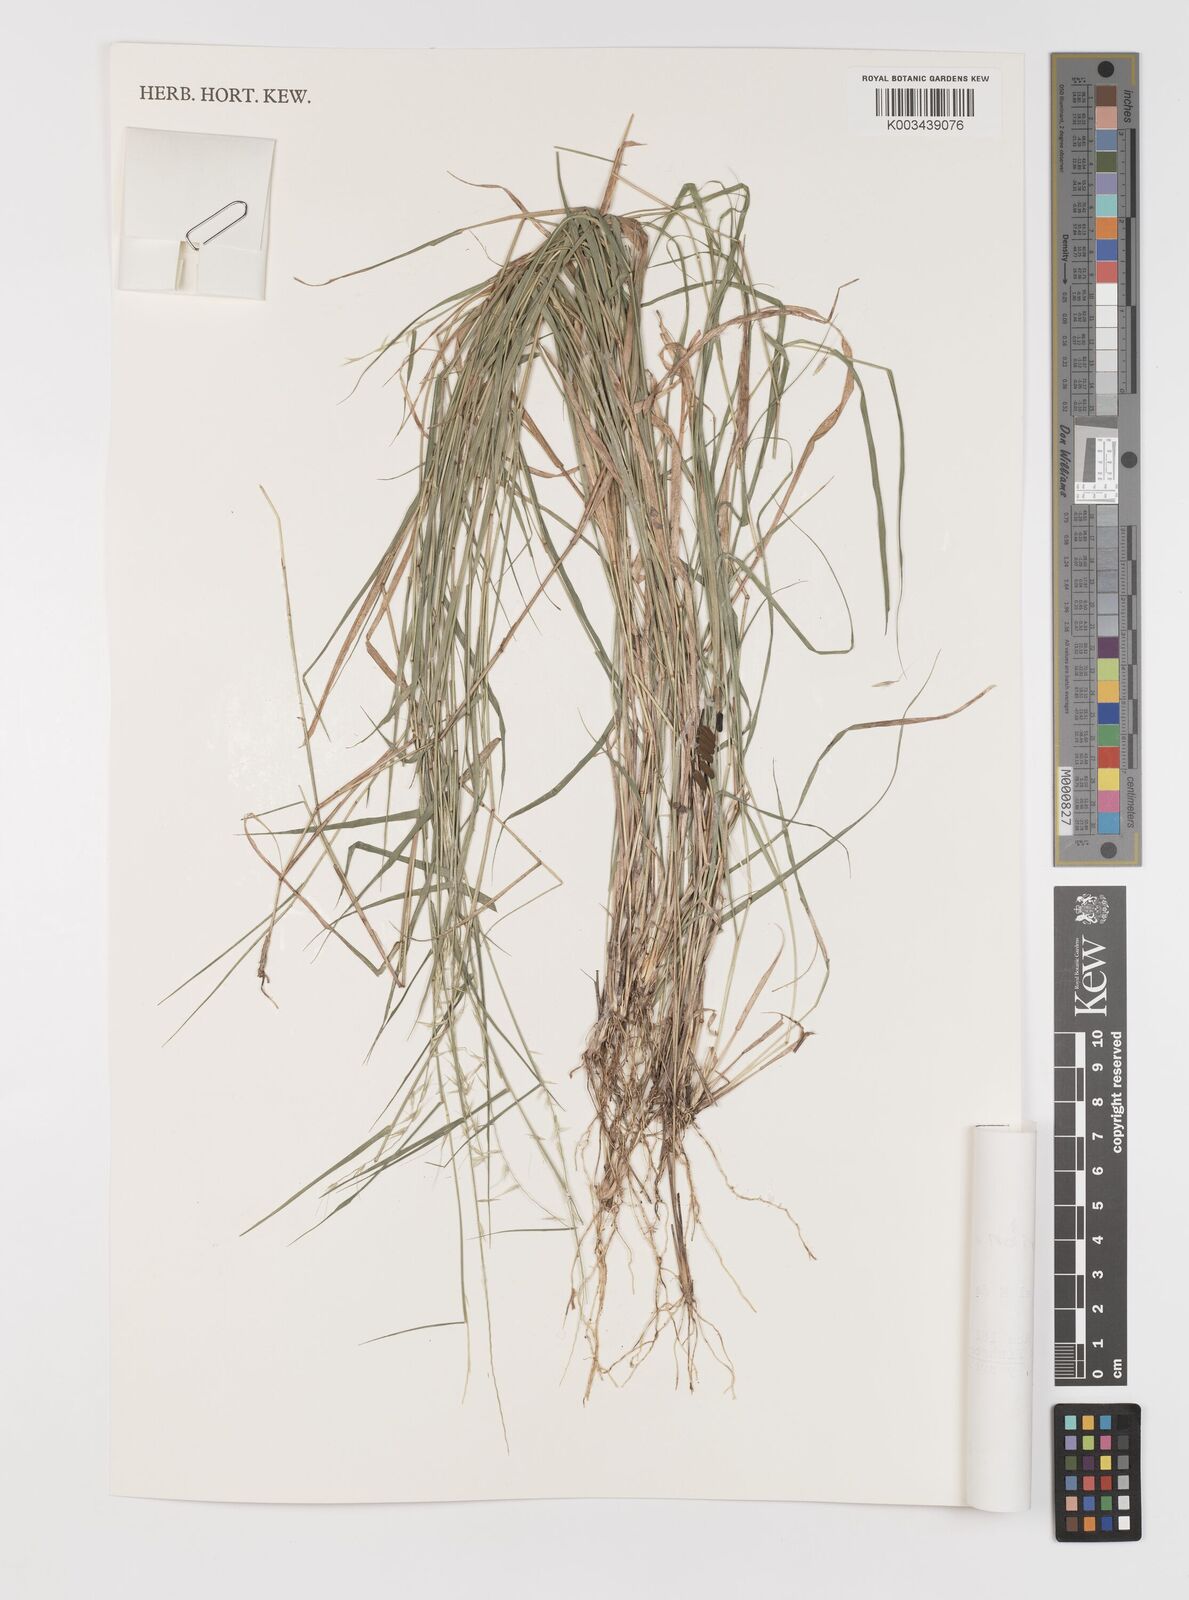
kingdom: Plantae
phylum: Tracheophyta
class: Liliopsida
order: Poales
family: Poaceae
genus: Bouteloua
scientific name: Bouteloua triaena
